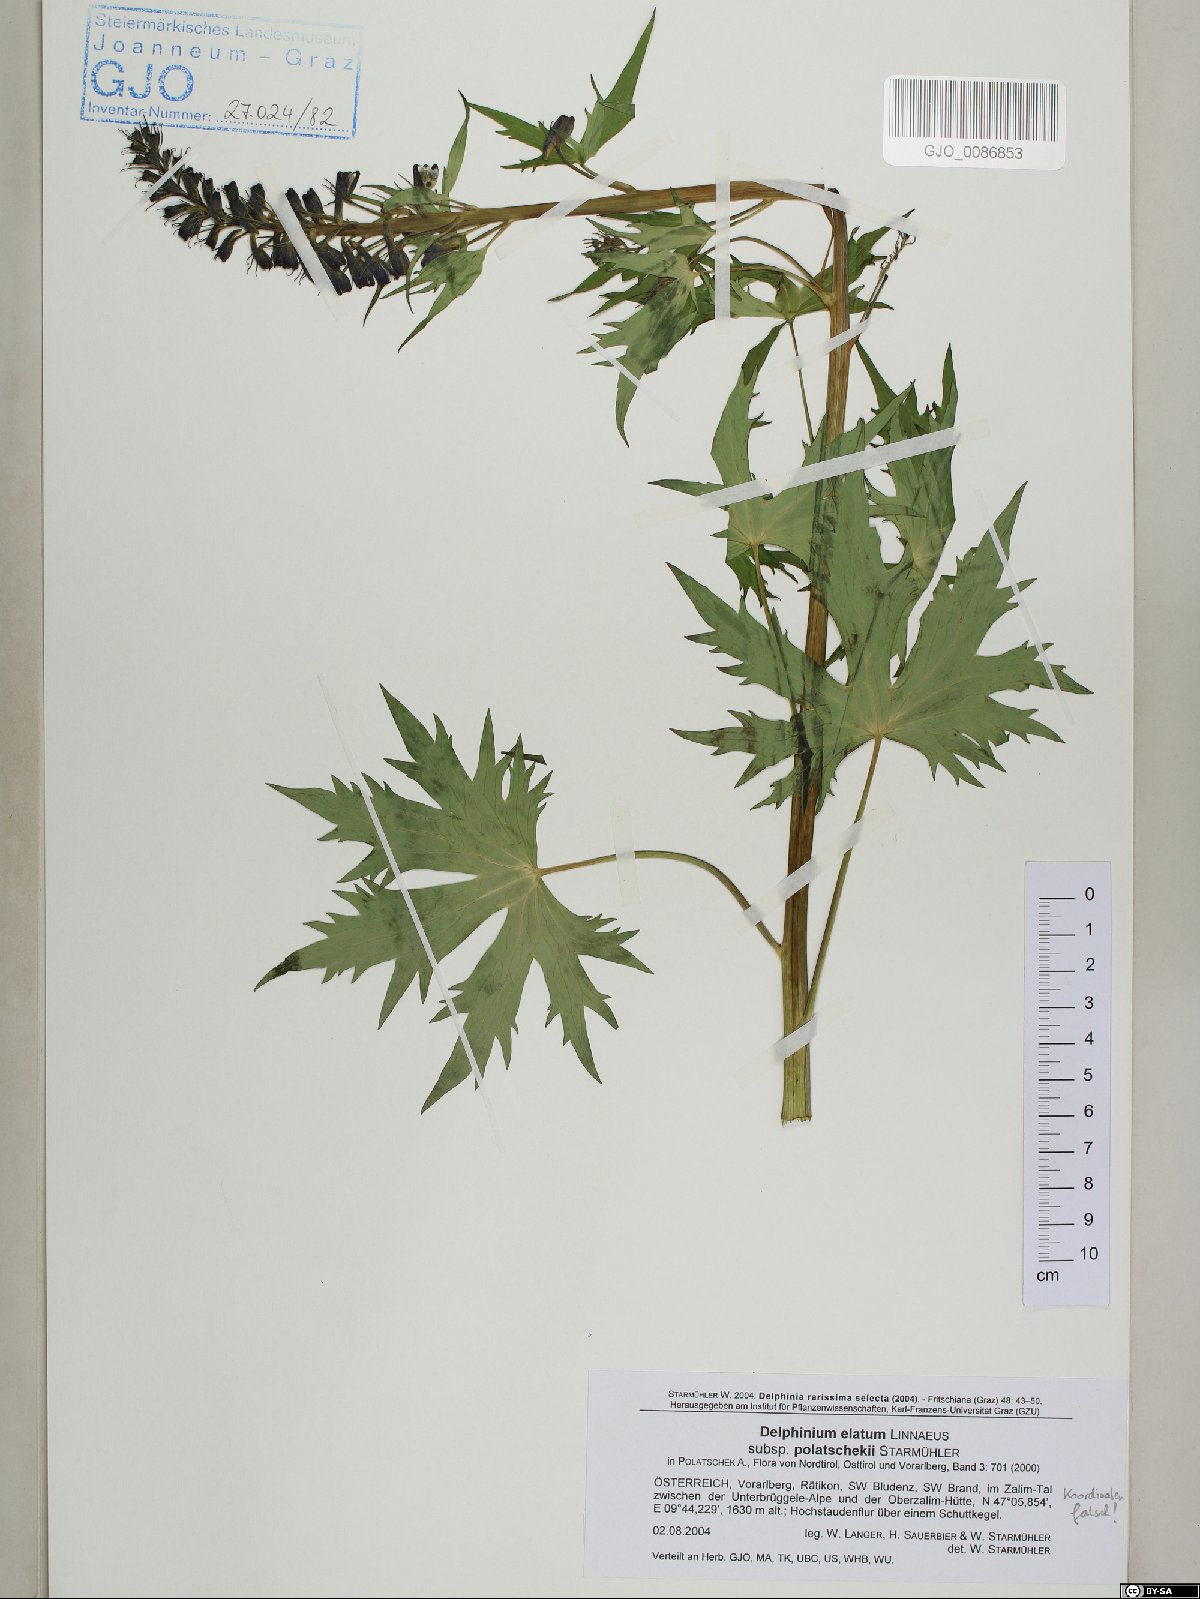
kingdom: Plantae
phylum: Tracheophyta
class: Magnoliopsida
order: Ranunculales
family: Ranunculaceae
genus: Delphinium
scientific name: Delphinium elatum
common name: Candle larkspur
